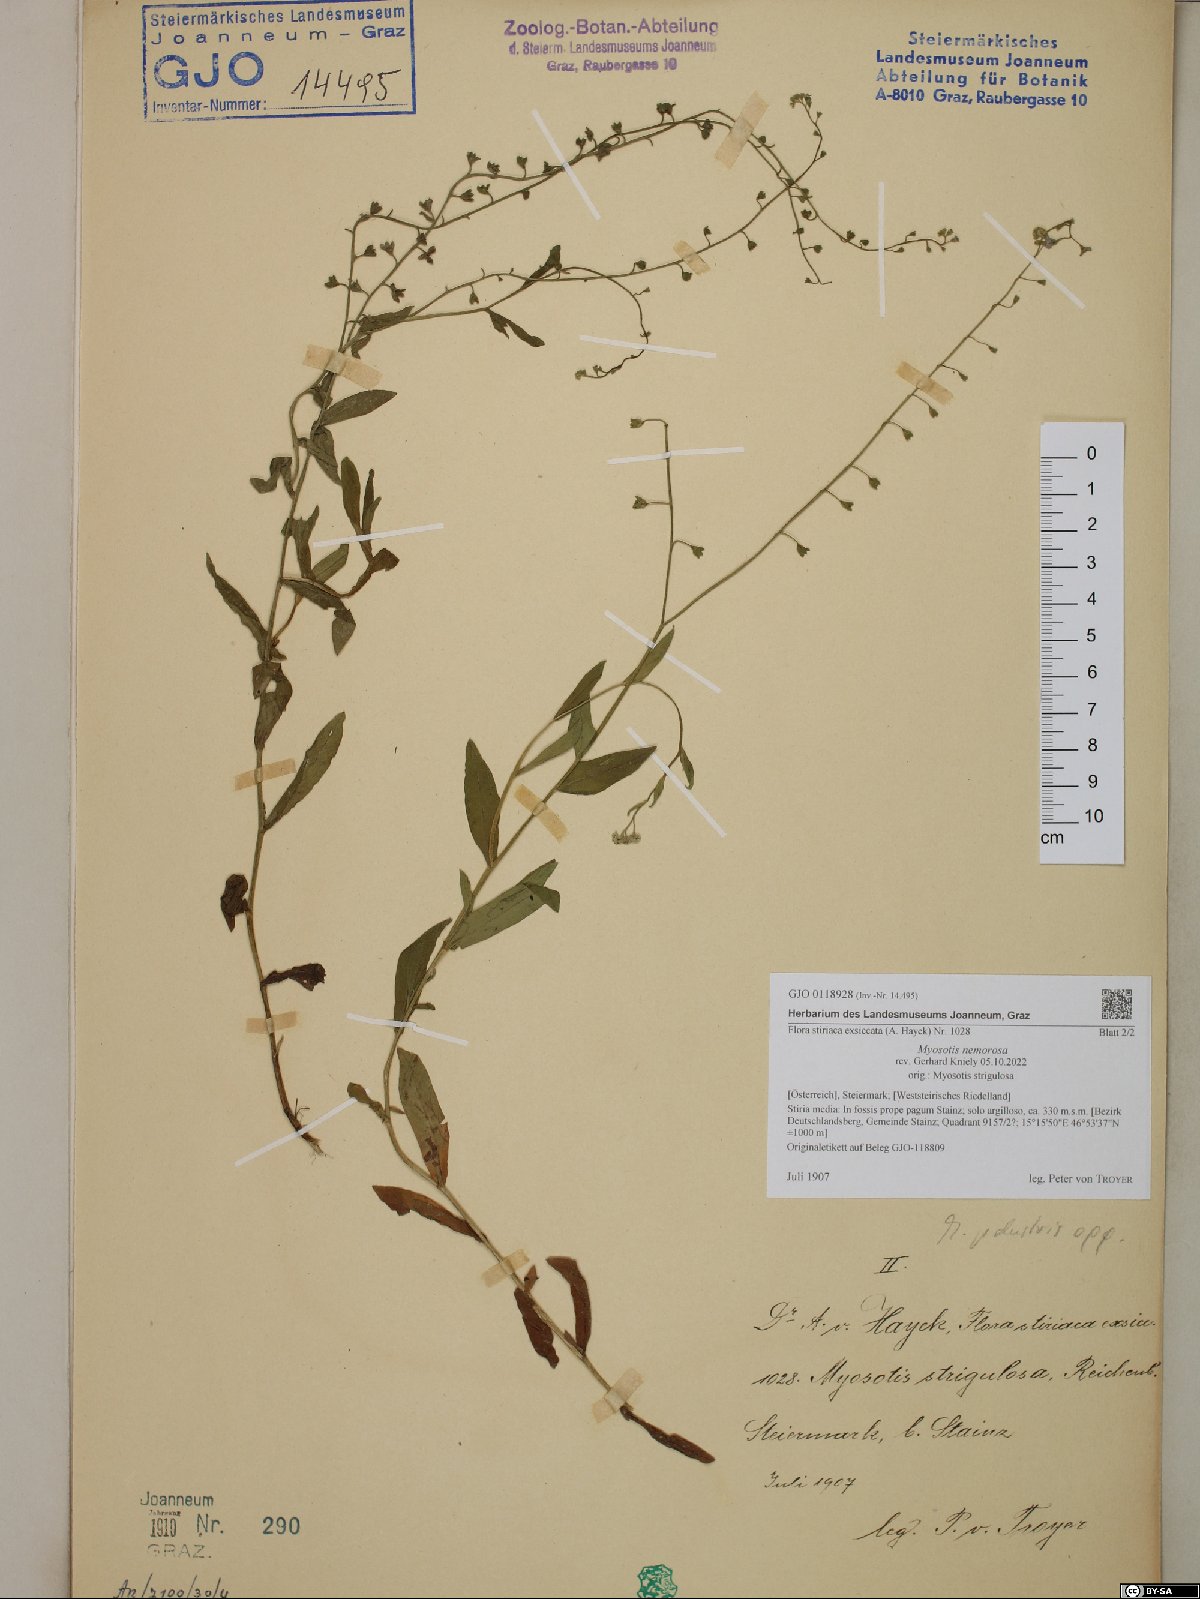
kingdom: Plantae
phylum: Tracheophyta
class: Magnoliopsida
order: Boraginales
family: Boraginaceae
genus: Myosotis
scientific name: Myosotis nemorosa
